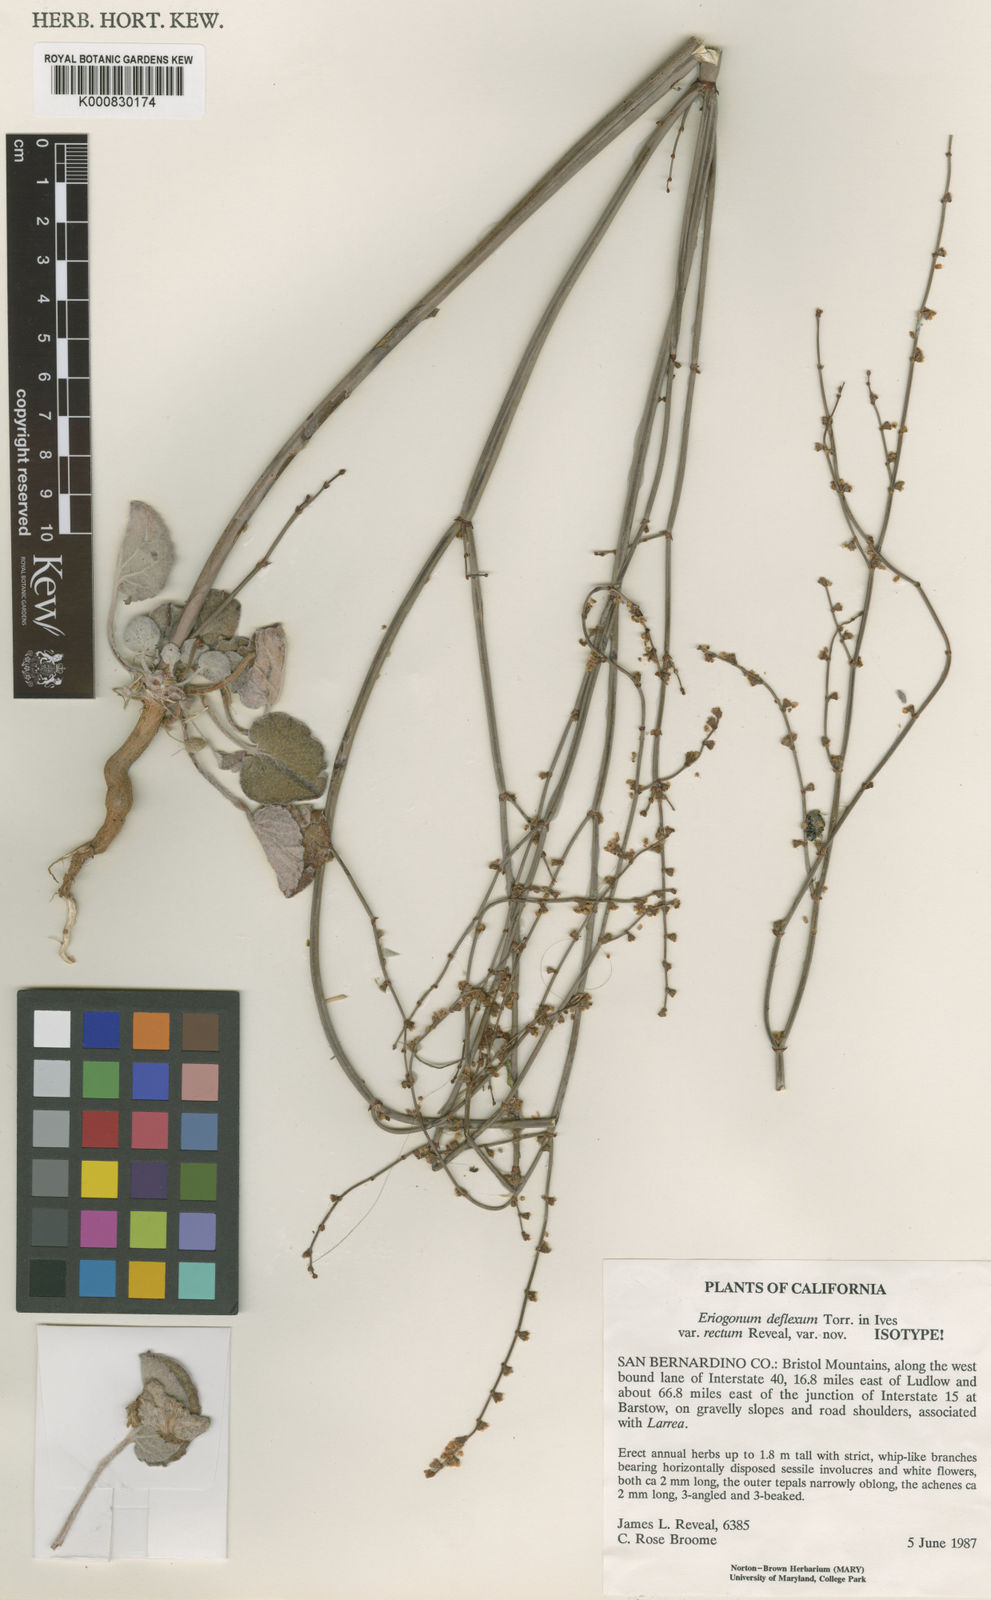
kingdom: Plantae
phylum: Tracheophyta
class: Magnoliopsida
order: Caryophyllales
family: Polygonaceae
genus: Eriogonum
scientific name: Eriogonum deflexum
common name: Skeleton-weed
